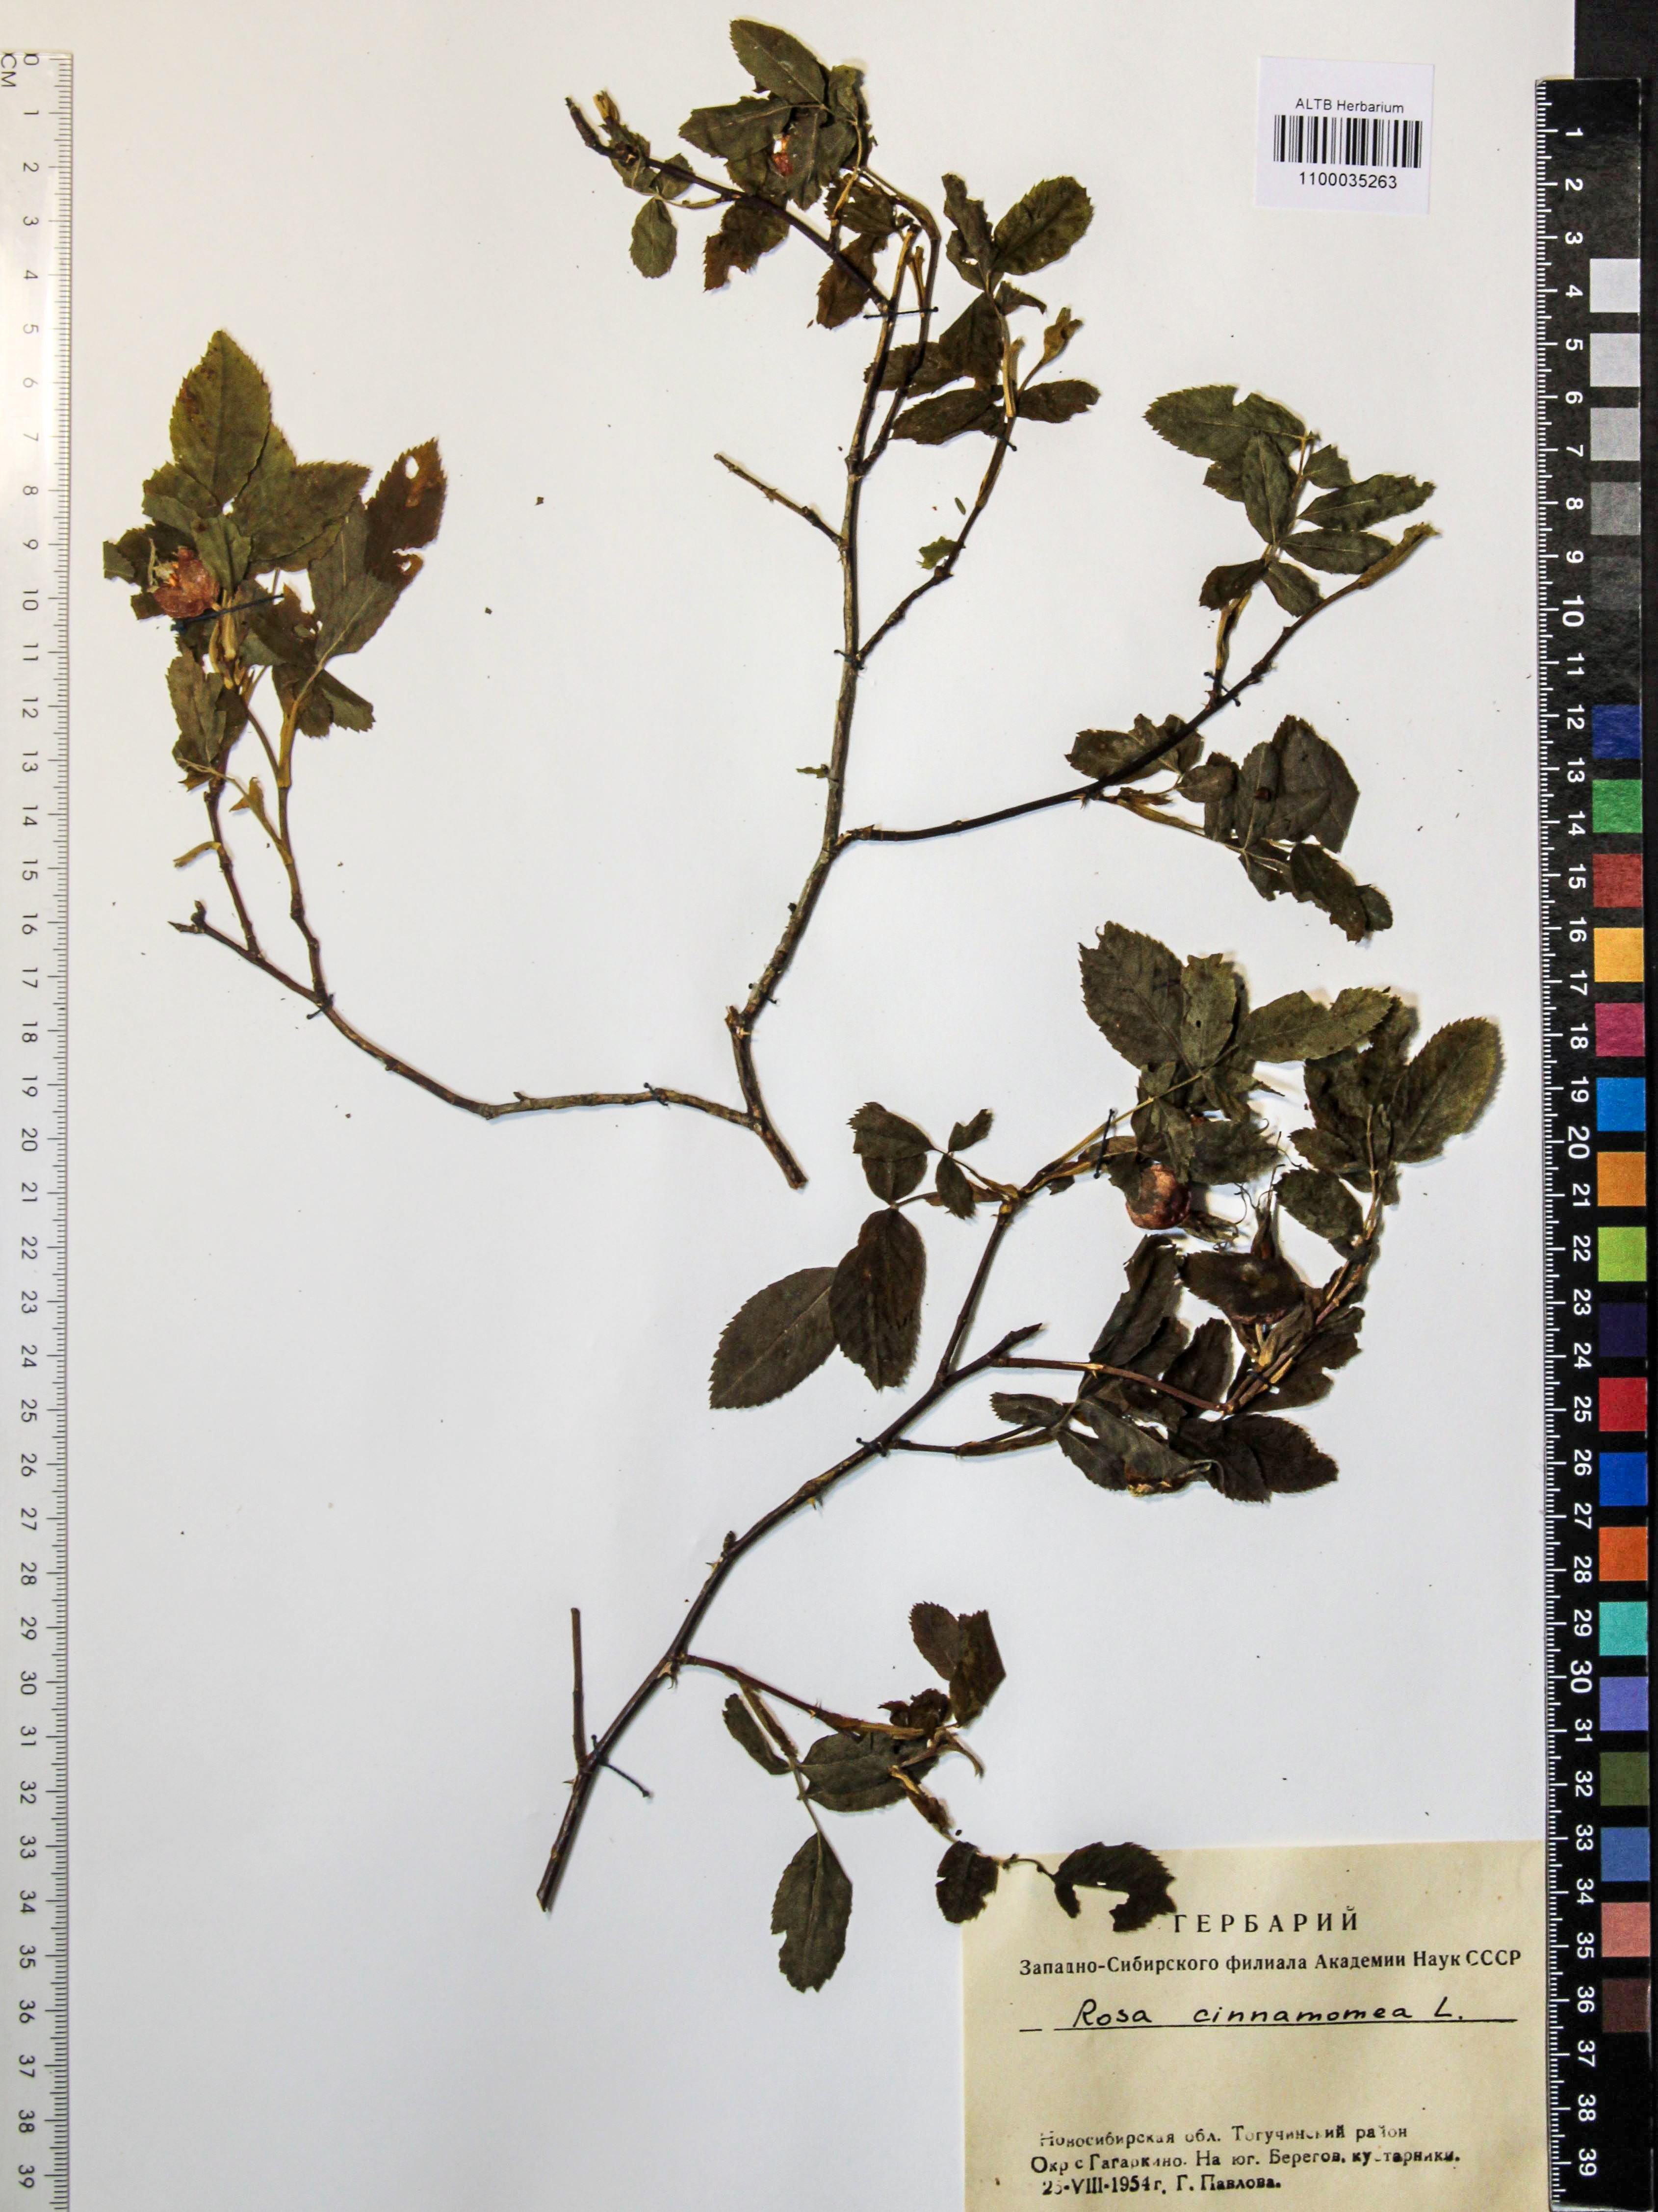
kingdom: Plantae
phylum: Tracheophyta
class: Magnoliopsida
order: Rosales
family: Rosaceae
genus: Rosa
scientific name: Rosa pendulina
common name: Alpine rose
